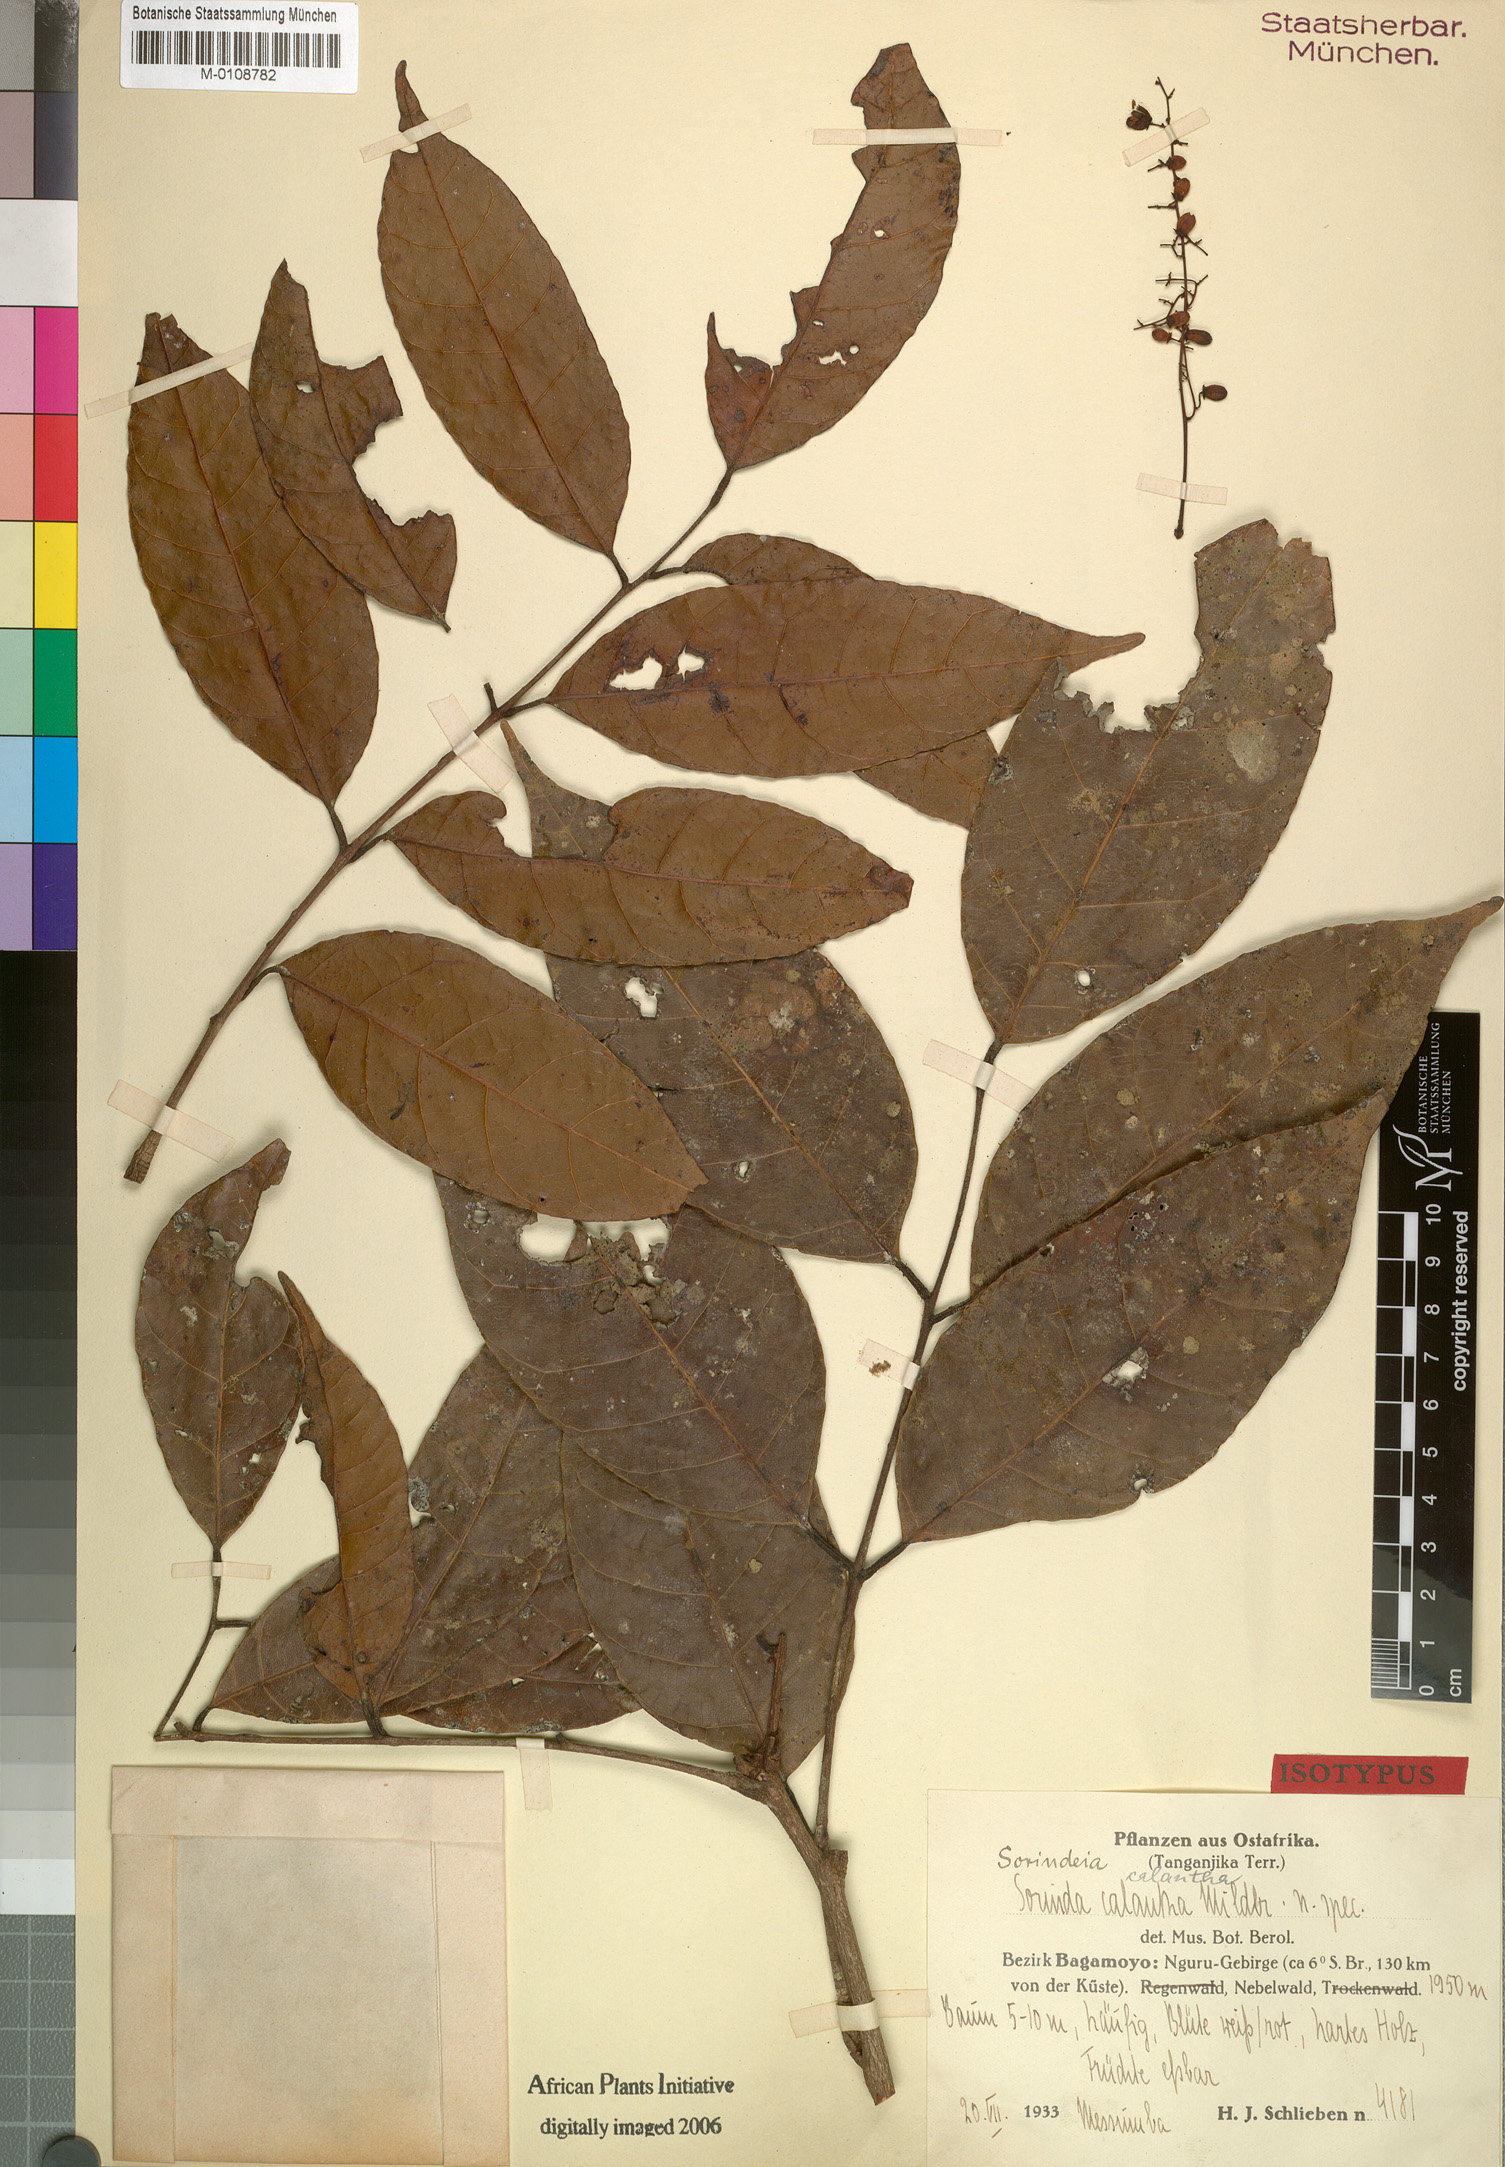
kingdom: Plantae
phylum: Tracheophyta
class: Magnoliopsida
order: Sapindales
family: Anacardiaceae
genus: Sorindeia
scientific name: Sorindeia calantha
